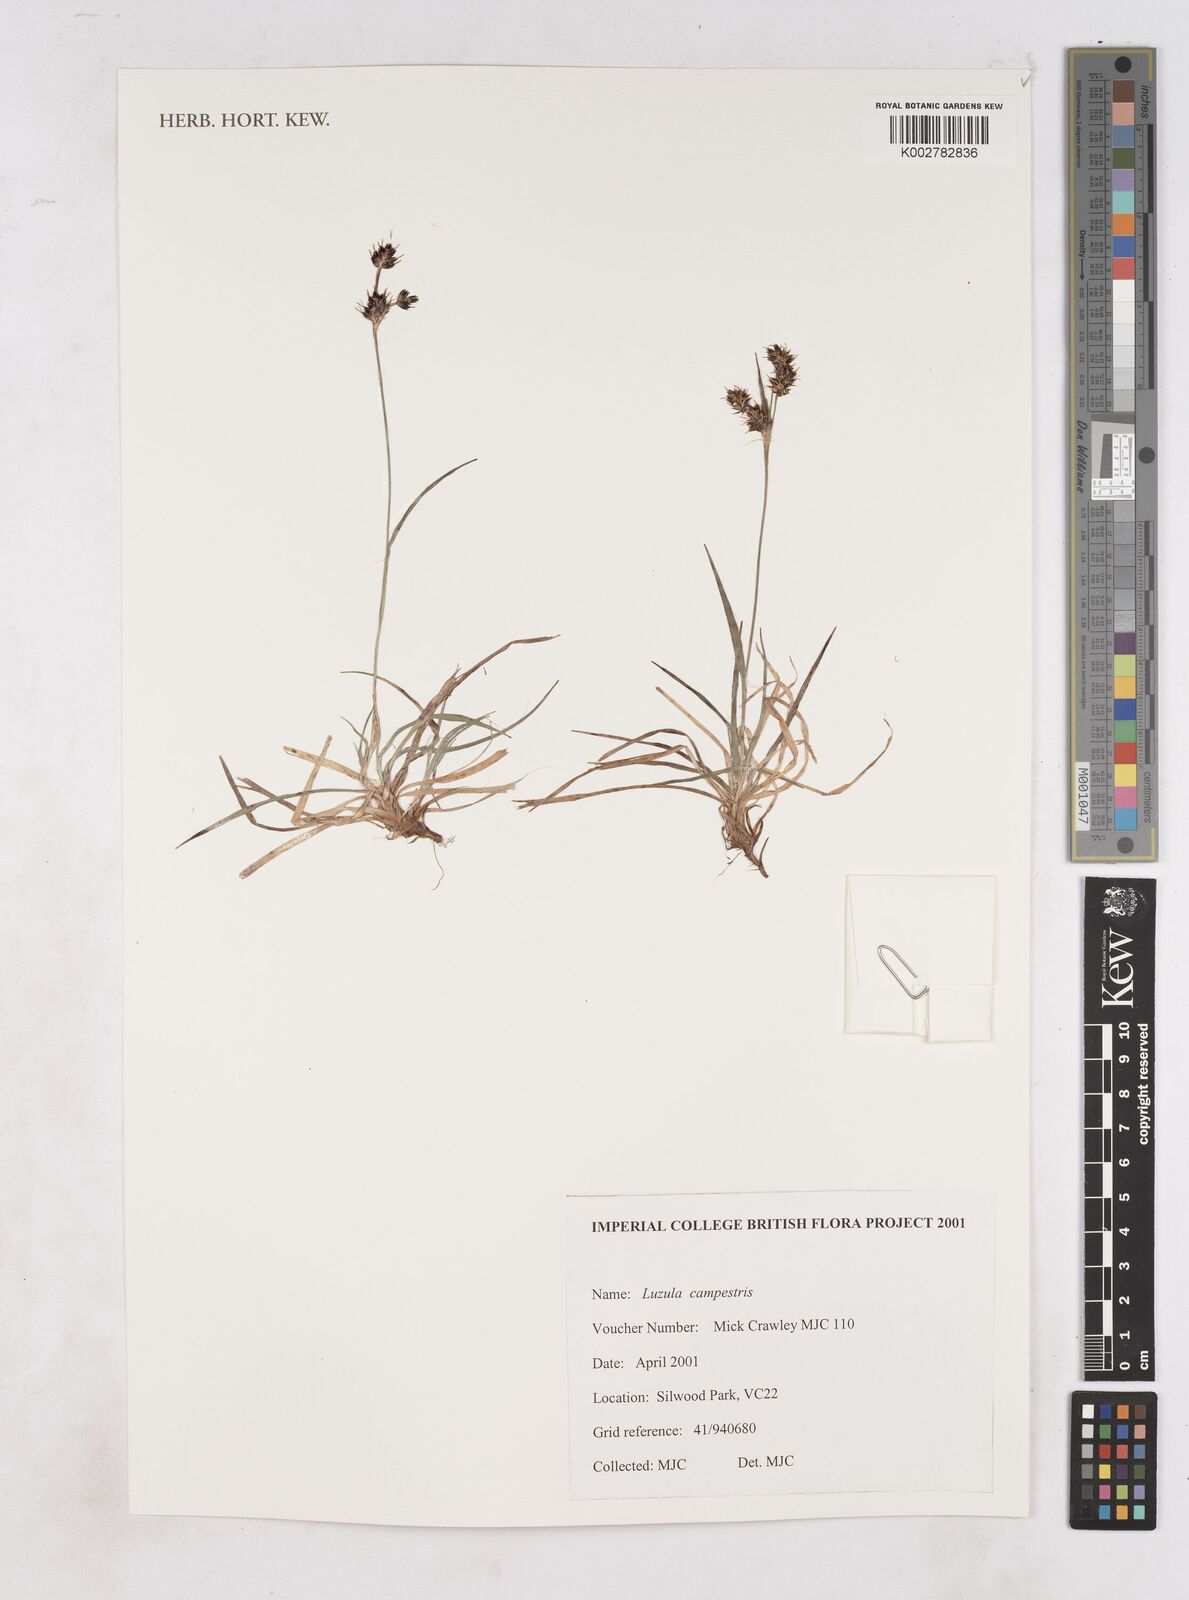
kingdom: Plantae
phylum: Tracheophyta
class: Liliopsida
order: Poales
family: Juncaceae
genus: Luzula
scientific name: Luzula campestris
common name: Field wood-rush
